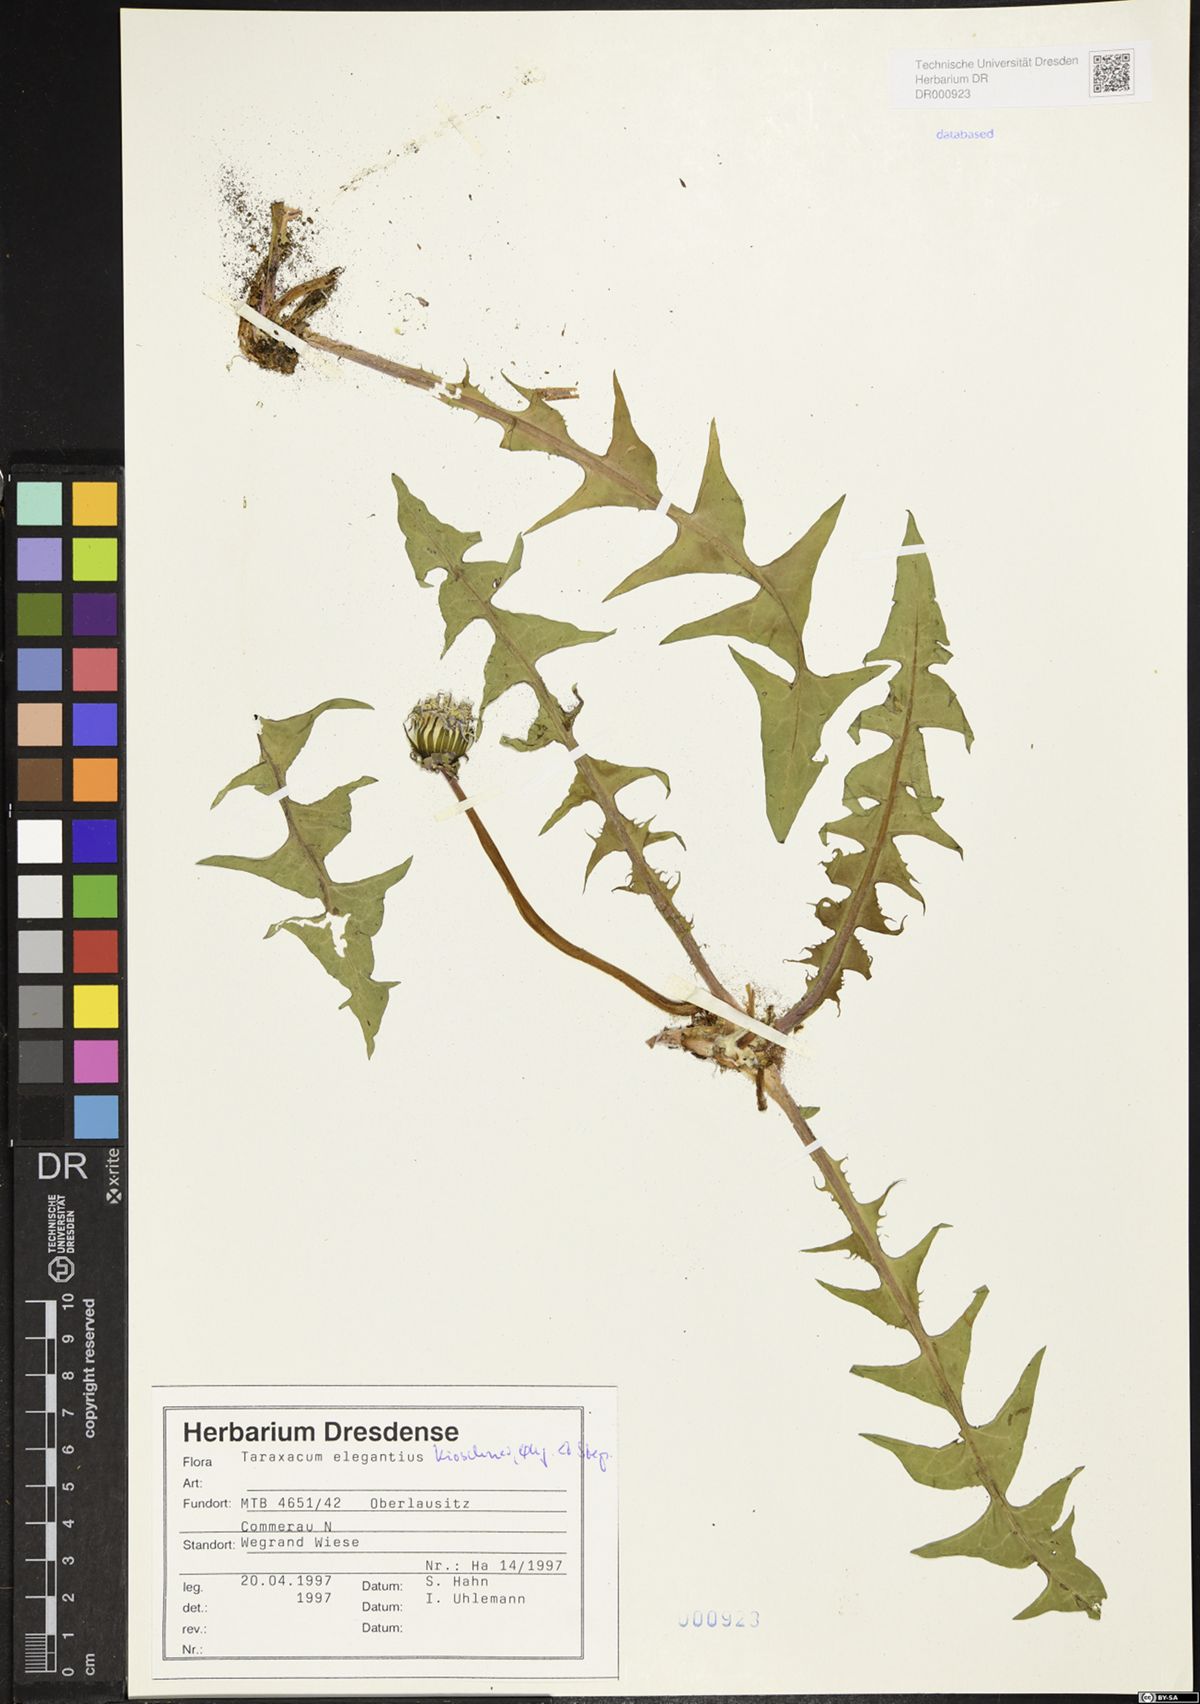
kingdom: Plantae
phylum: Tracheophyta
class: Magnoliopsida
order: Asterales
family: Asteraceae
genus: Taraxacum
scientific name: Taraxacum elegantius
